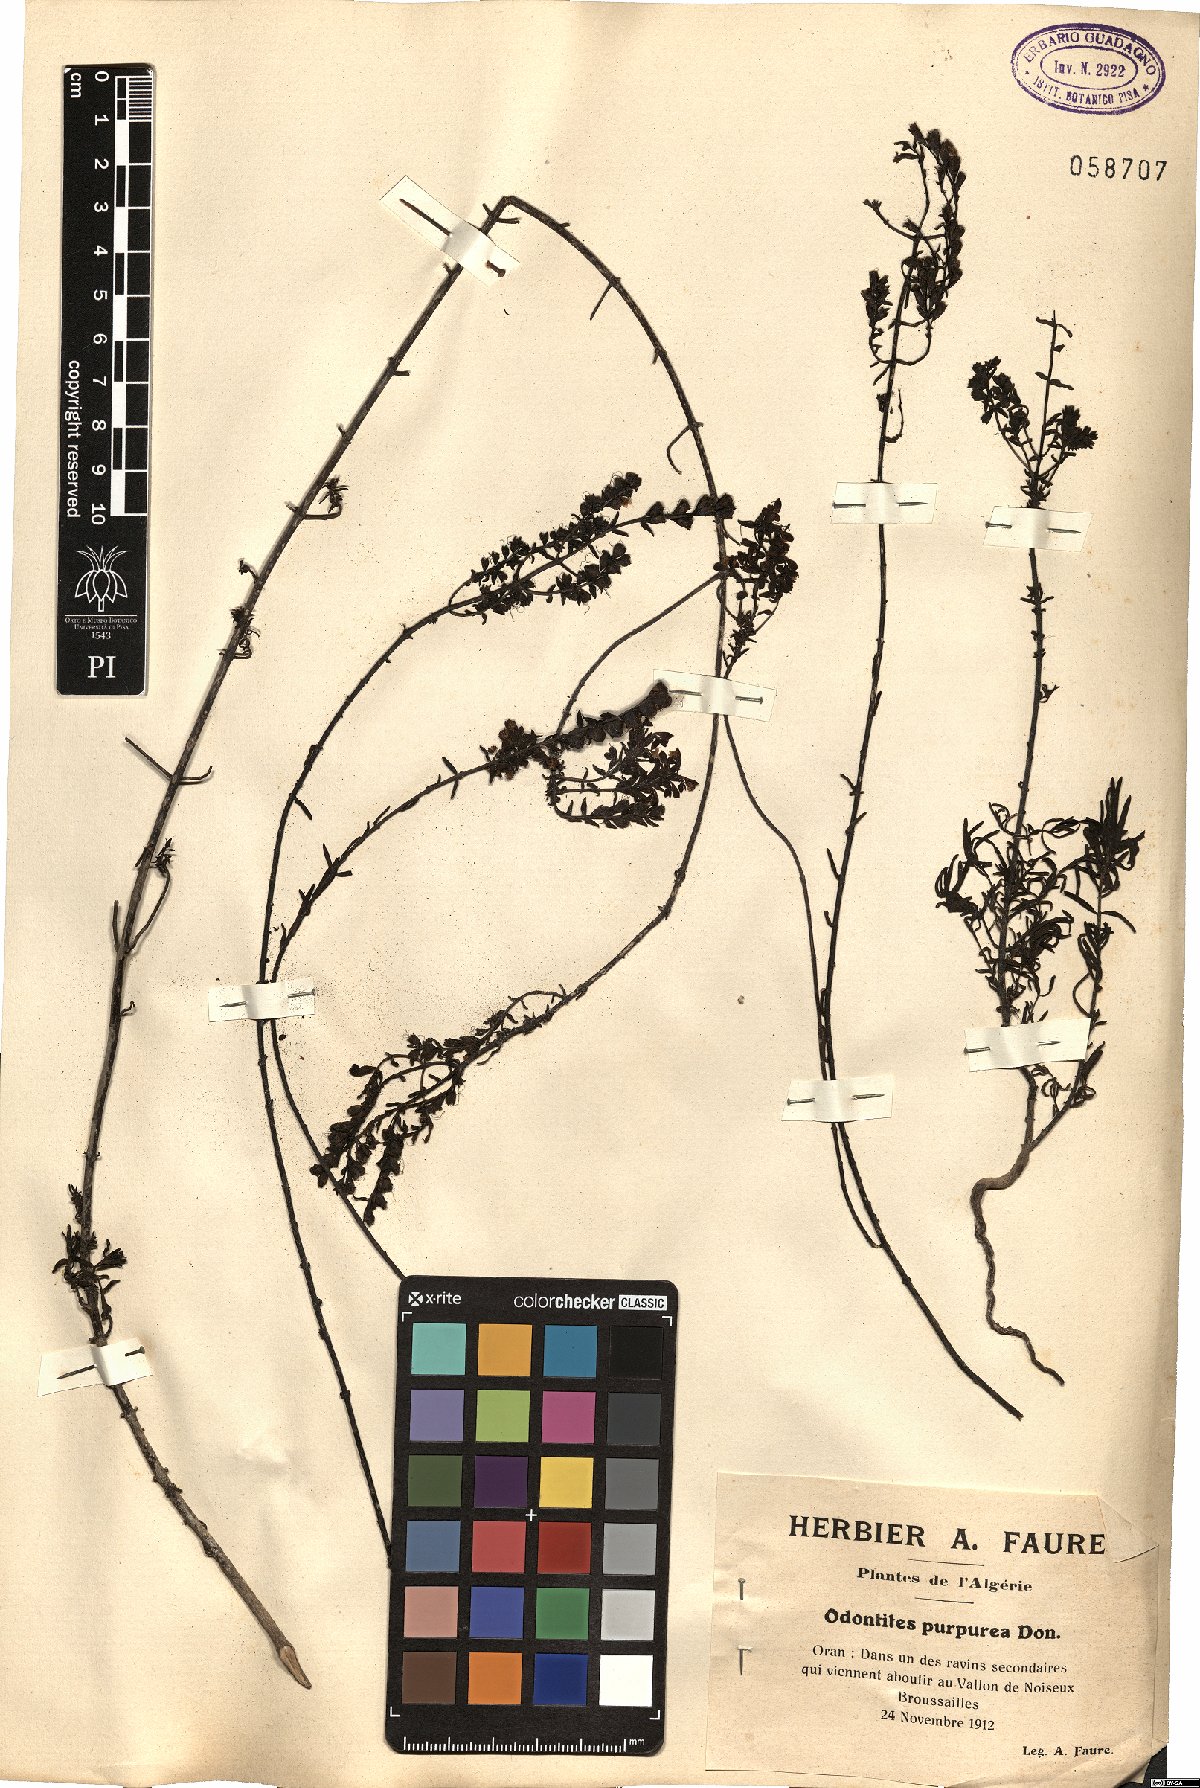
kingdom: Plantae
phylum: Tracheophyta
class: Magnoliopsida
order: Lamiales
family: Orobanchaceae
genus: Odontites
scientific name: Odontites purpureus
